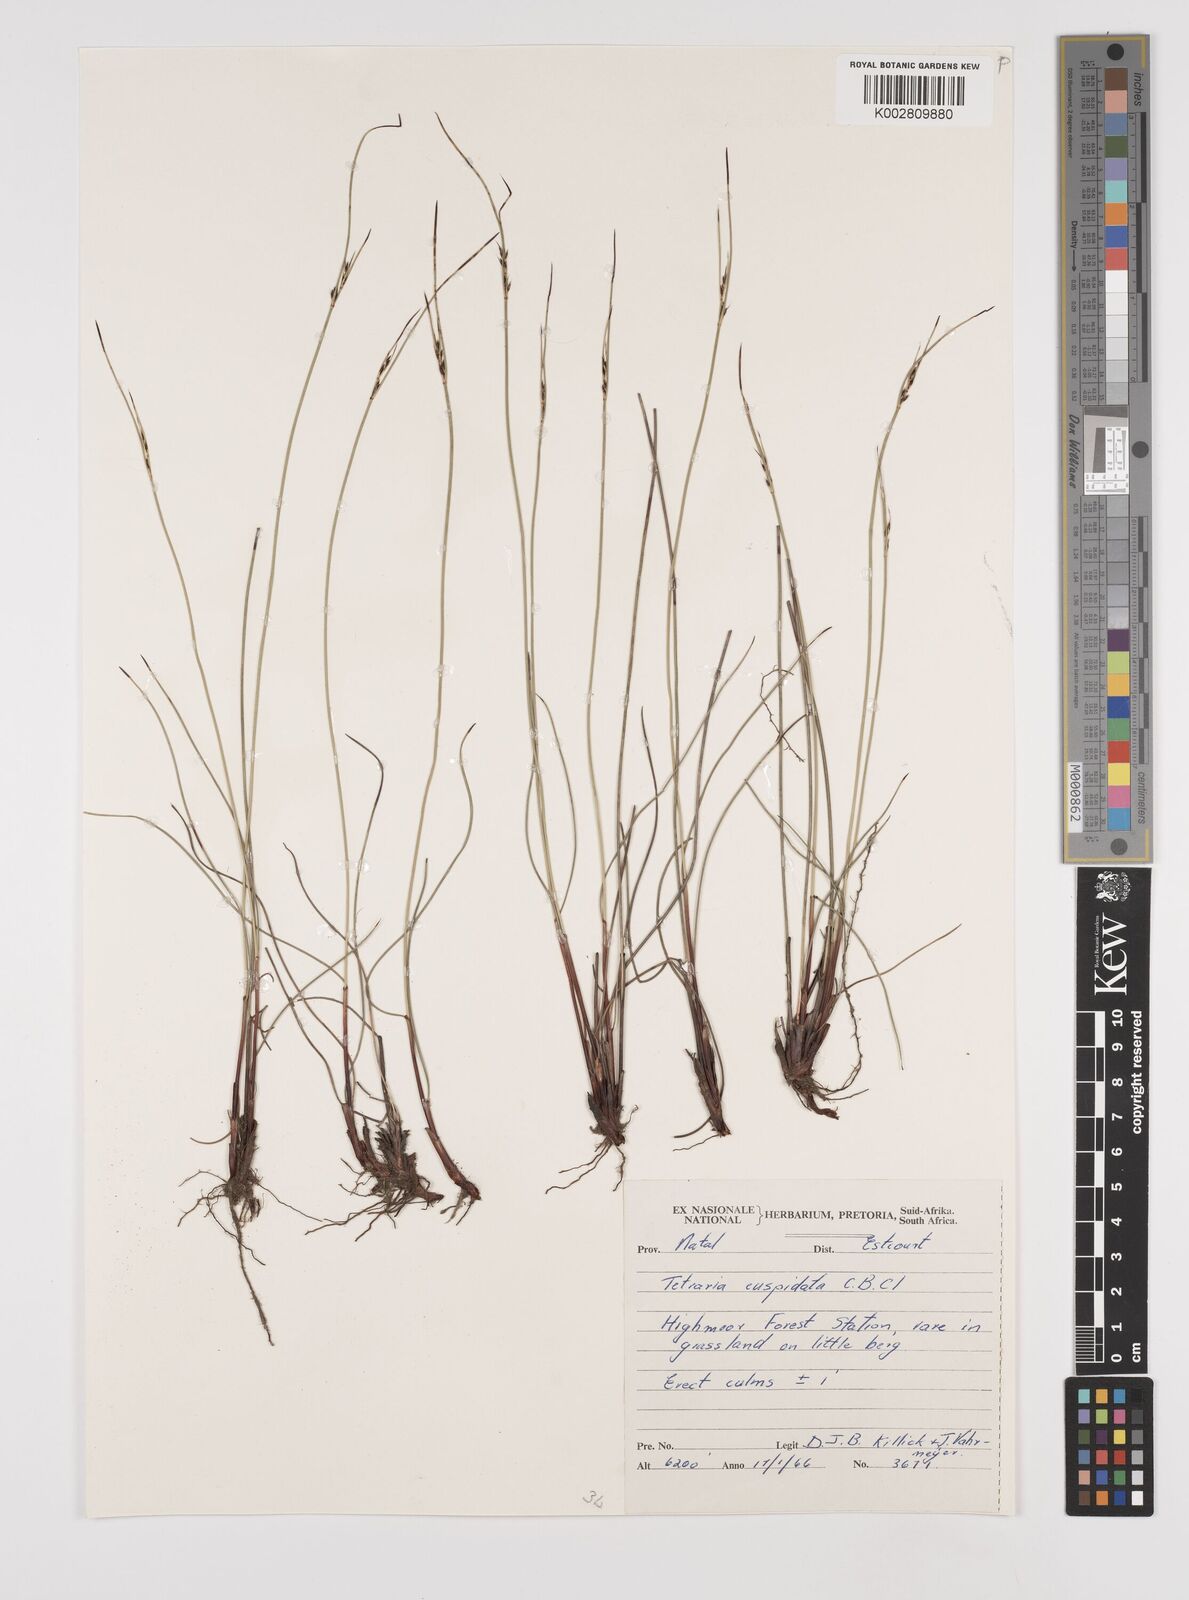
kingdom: Plantae
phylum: Tracheophyta
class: Liliopsida
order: Poales
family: Cyperaceae
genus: Schoenus
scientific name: Schoenus
